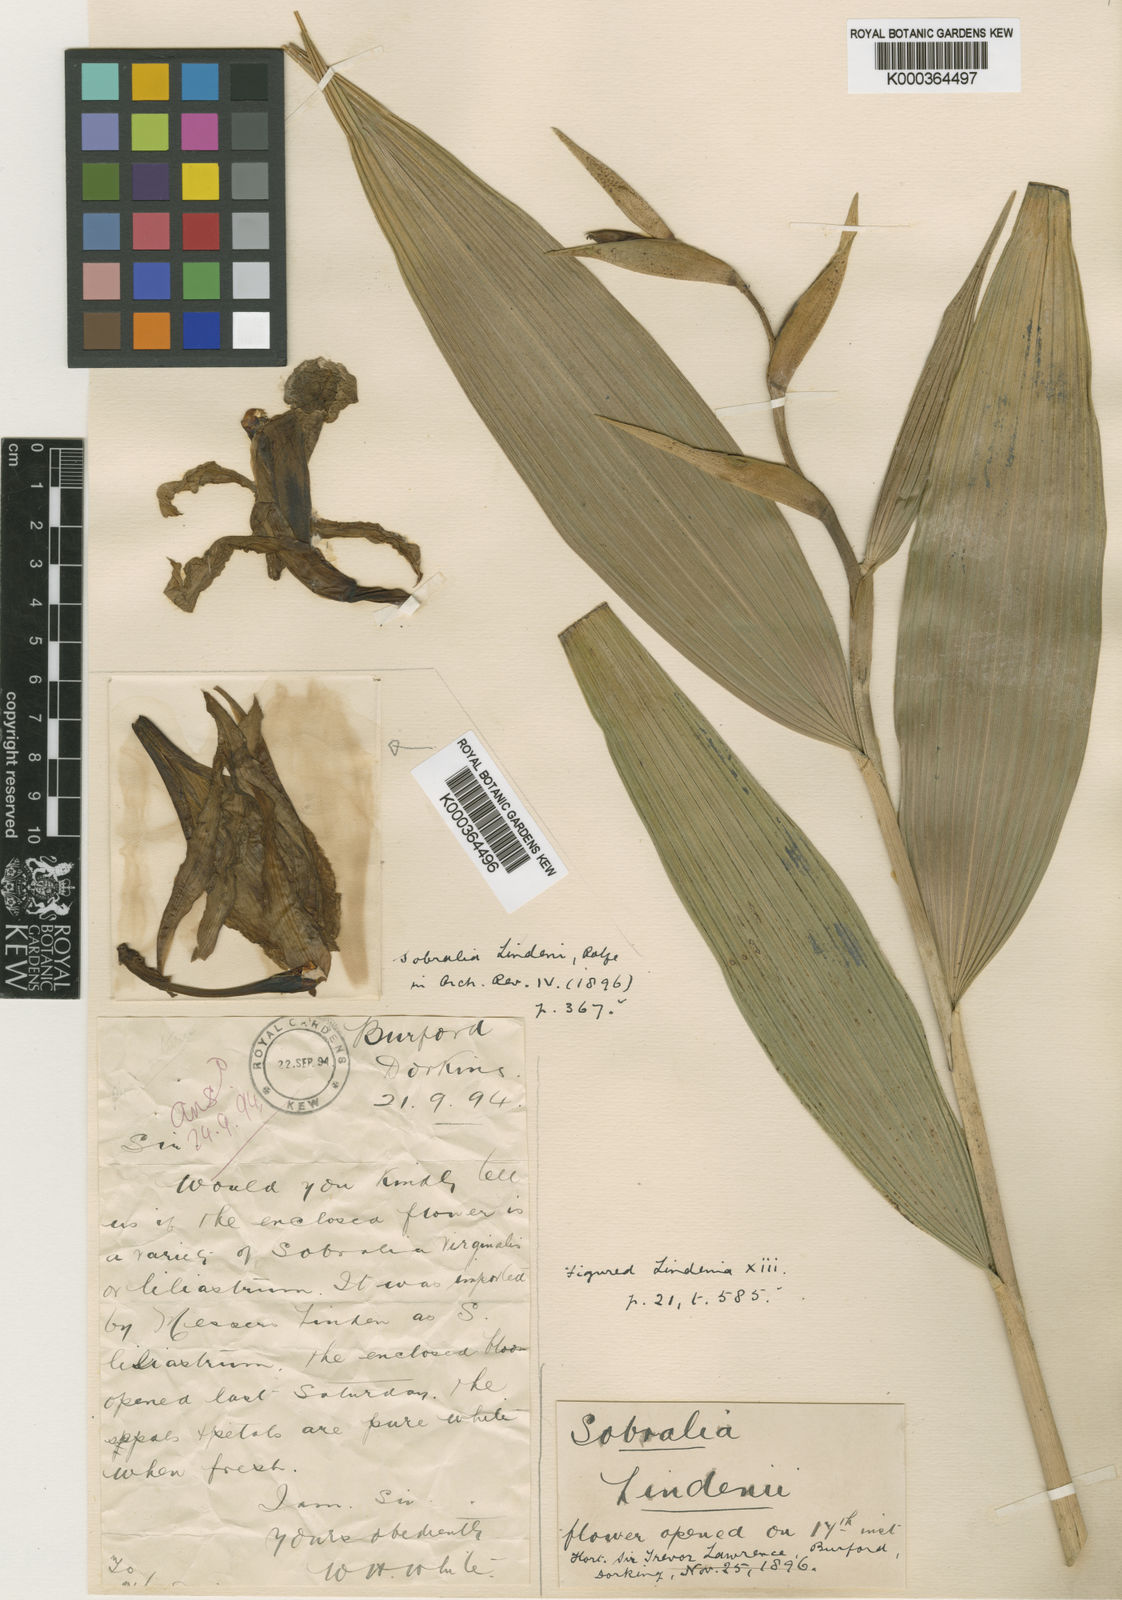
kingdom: Plantae
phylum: Tracheophyta
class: Liliopsida
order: Asparagales
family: Orchidaceae
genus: Sobralia
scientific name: Sobralia rosea
